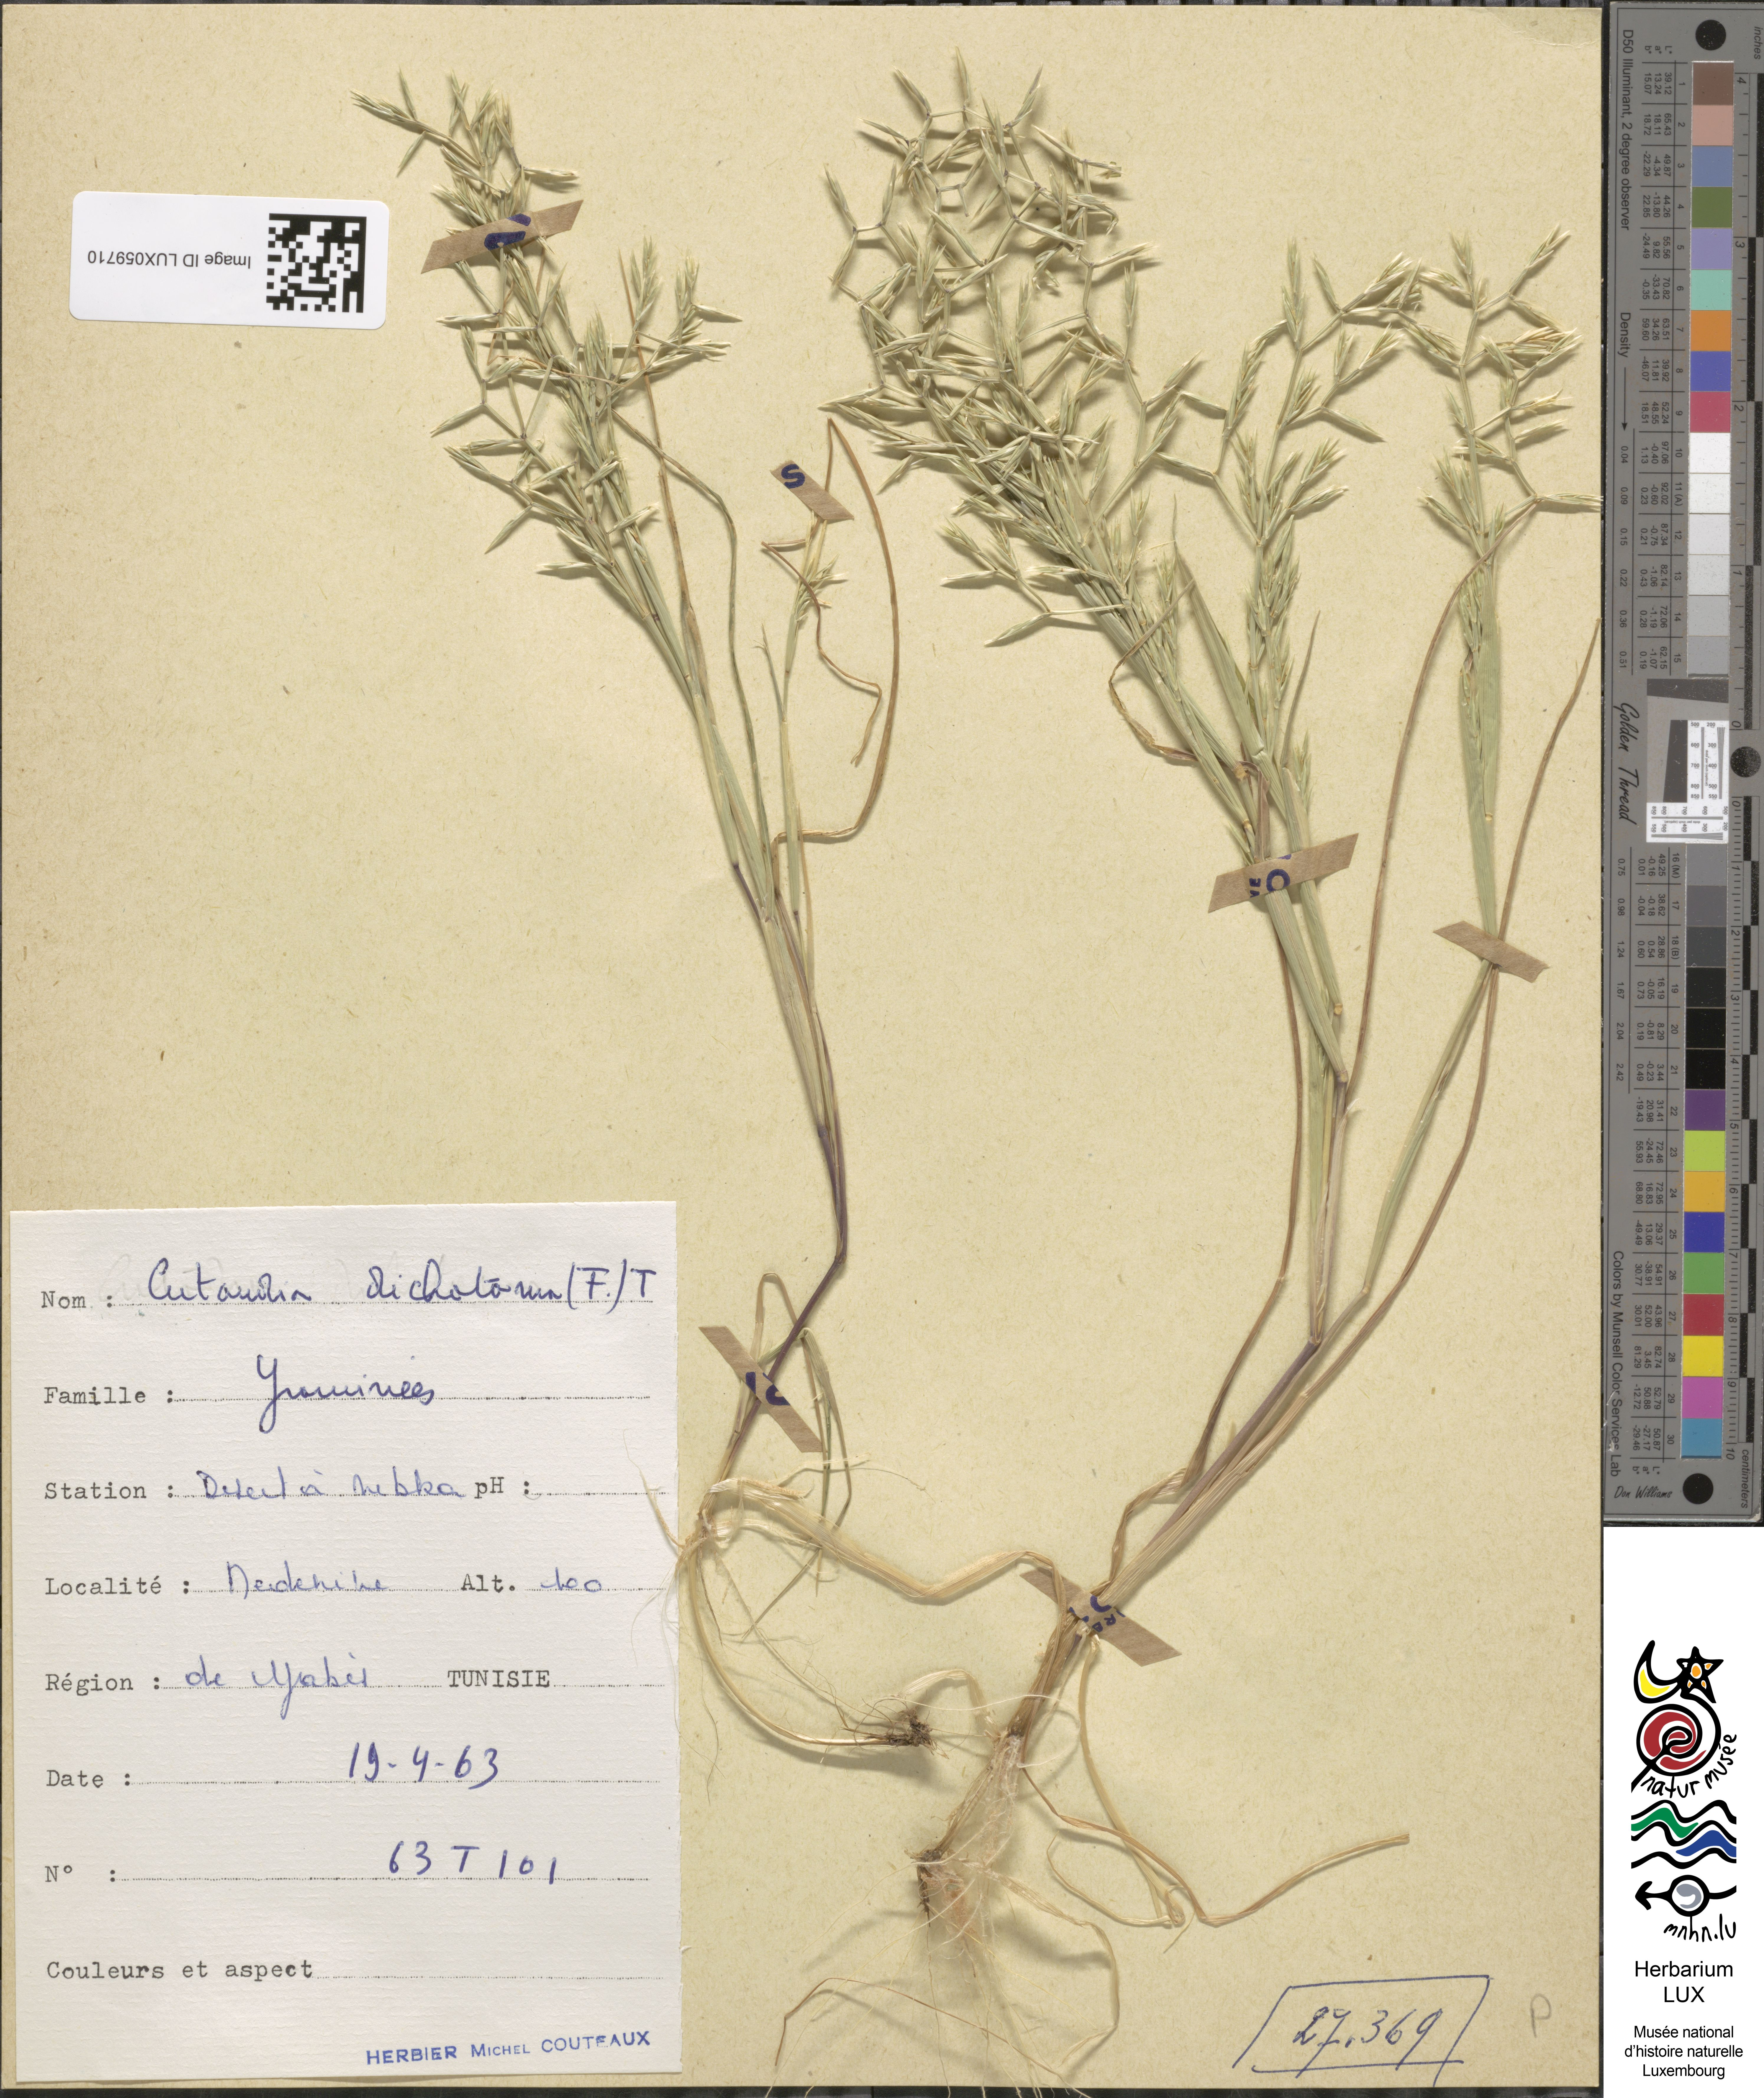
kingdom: Plantae
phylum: Tracheophyta
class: Liliopsida
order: Poales
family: Poaceae
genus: Cutandia
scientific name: Cutandia dichotoma
